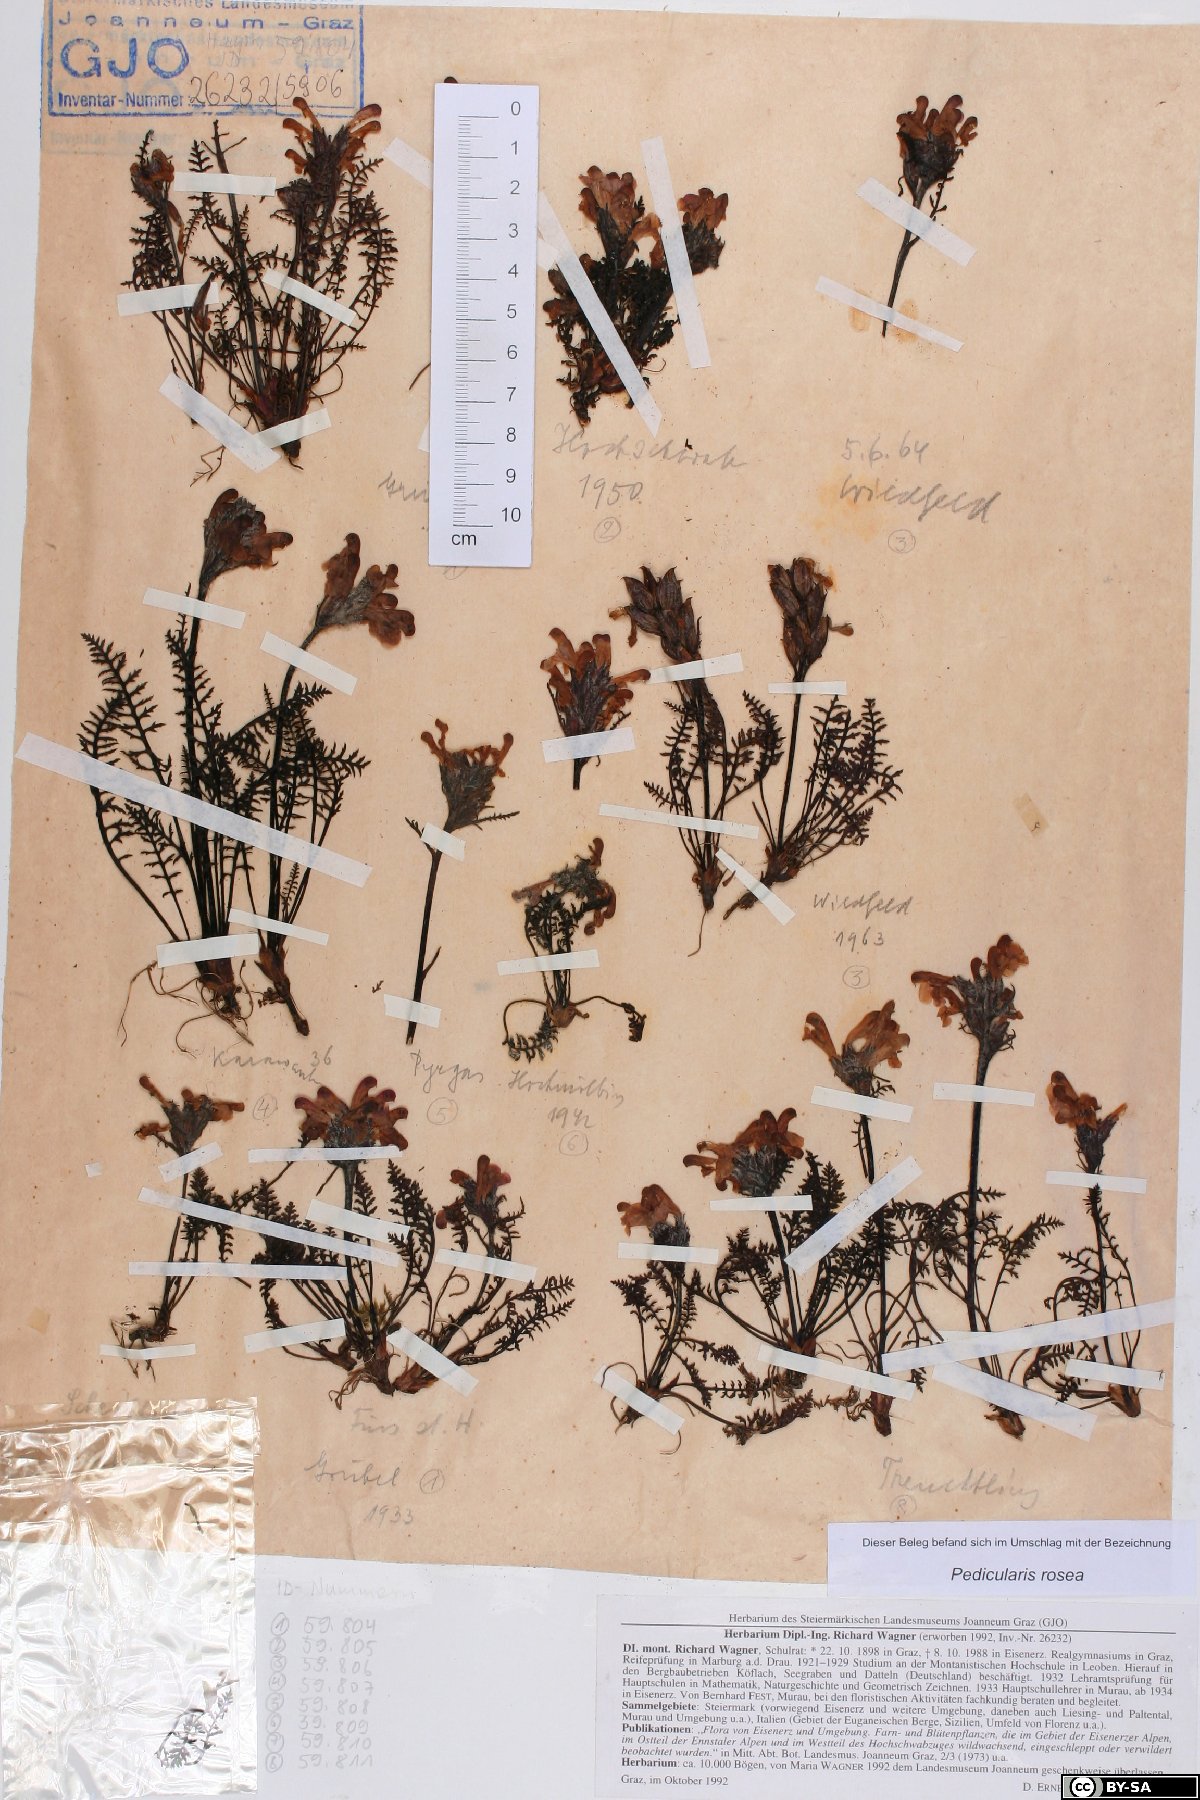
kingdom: Plantae
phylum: Tracheophyta
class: Magnoliopsida
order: Lamiales
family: Orobanchaceae
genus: Pedicularis
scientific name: Pedicularis rosea
